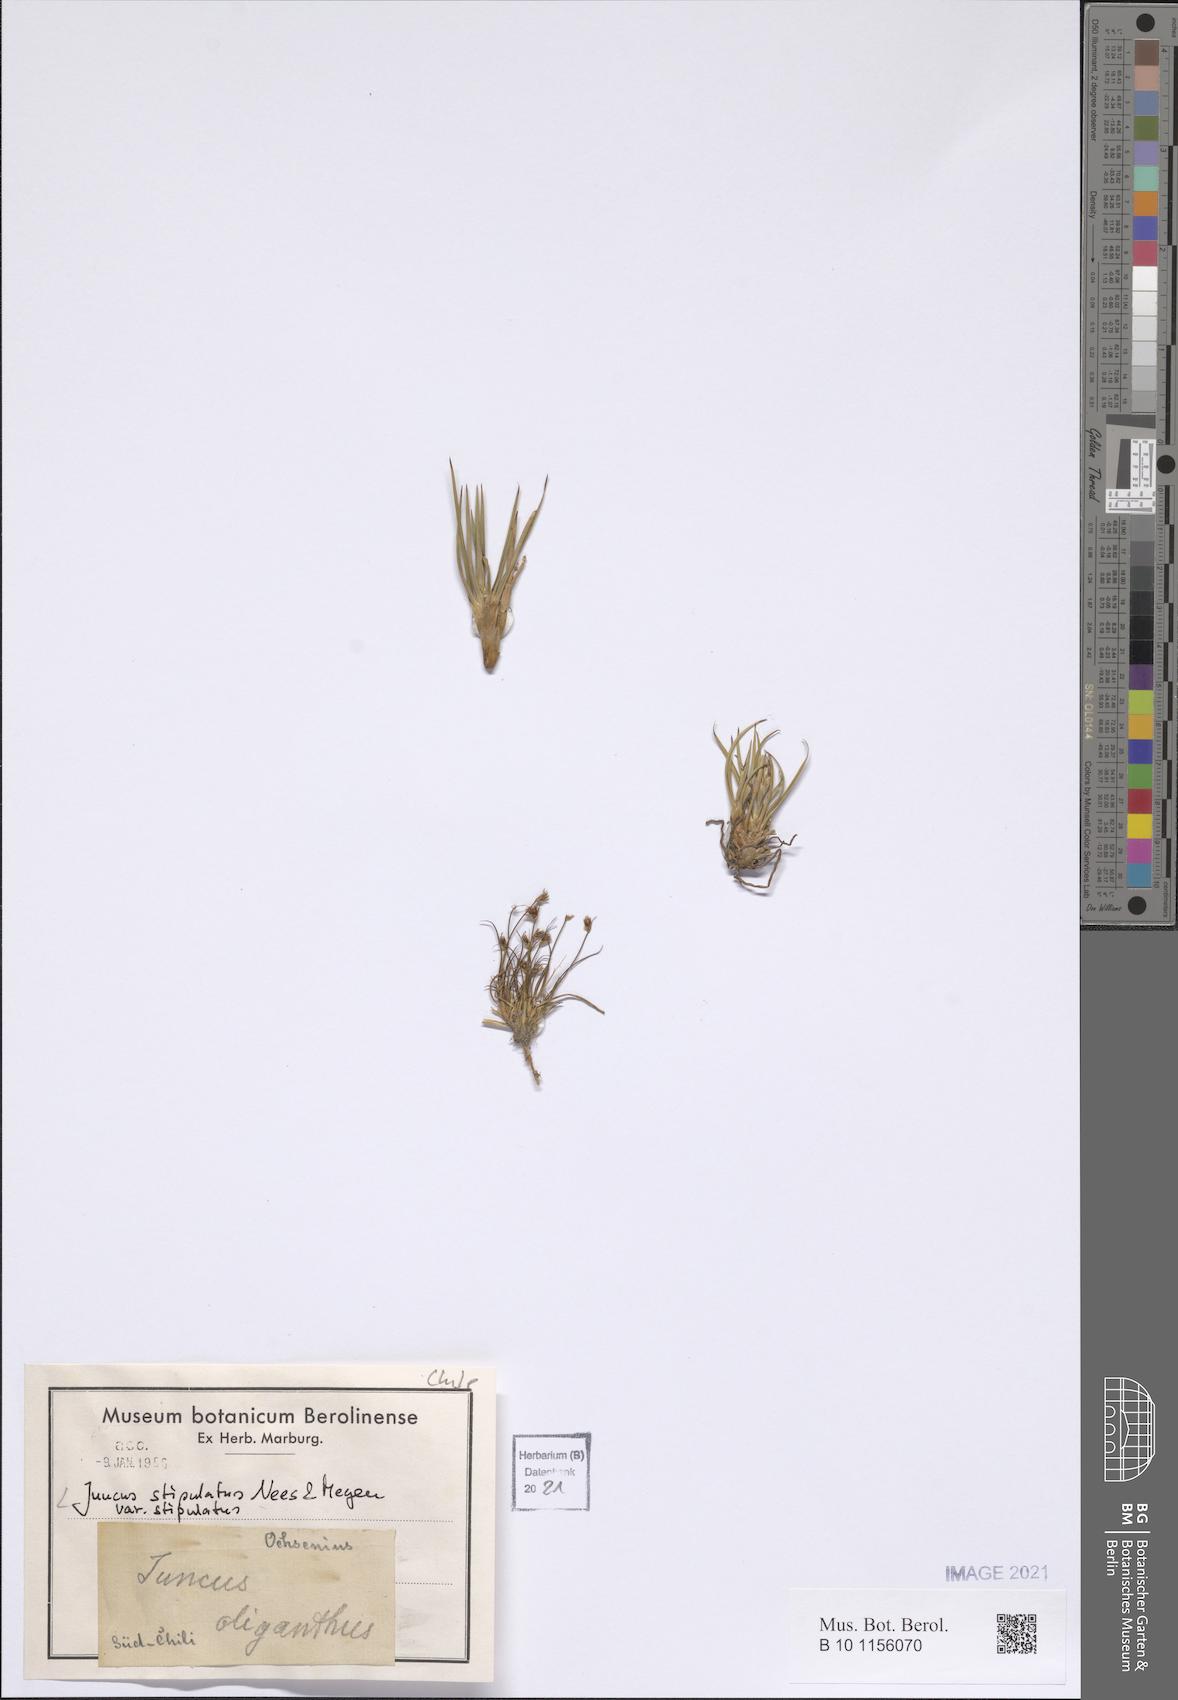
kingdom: Plantae
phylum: Tracheophyta
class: Liliopsida
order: Poales
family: Juncaceae
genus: Juncus
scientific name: Juncus stipulatus
